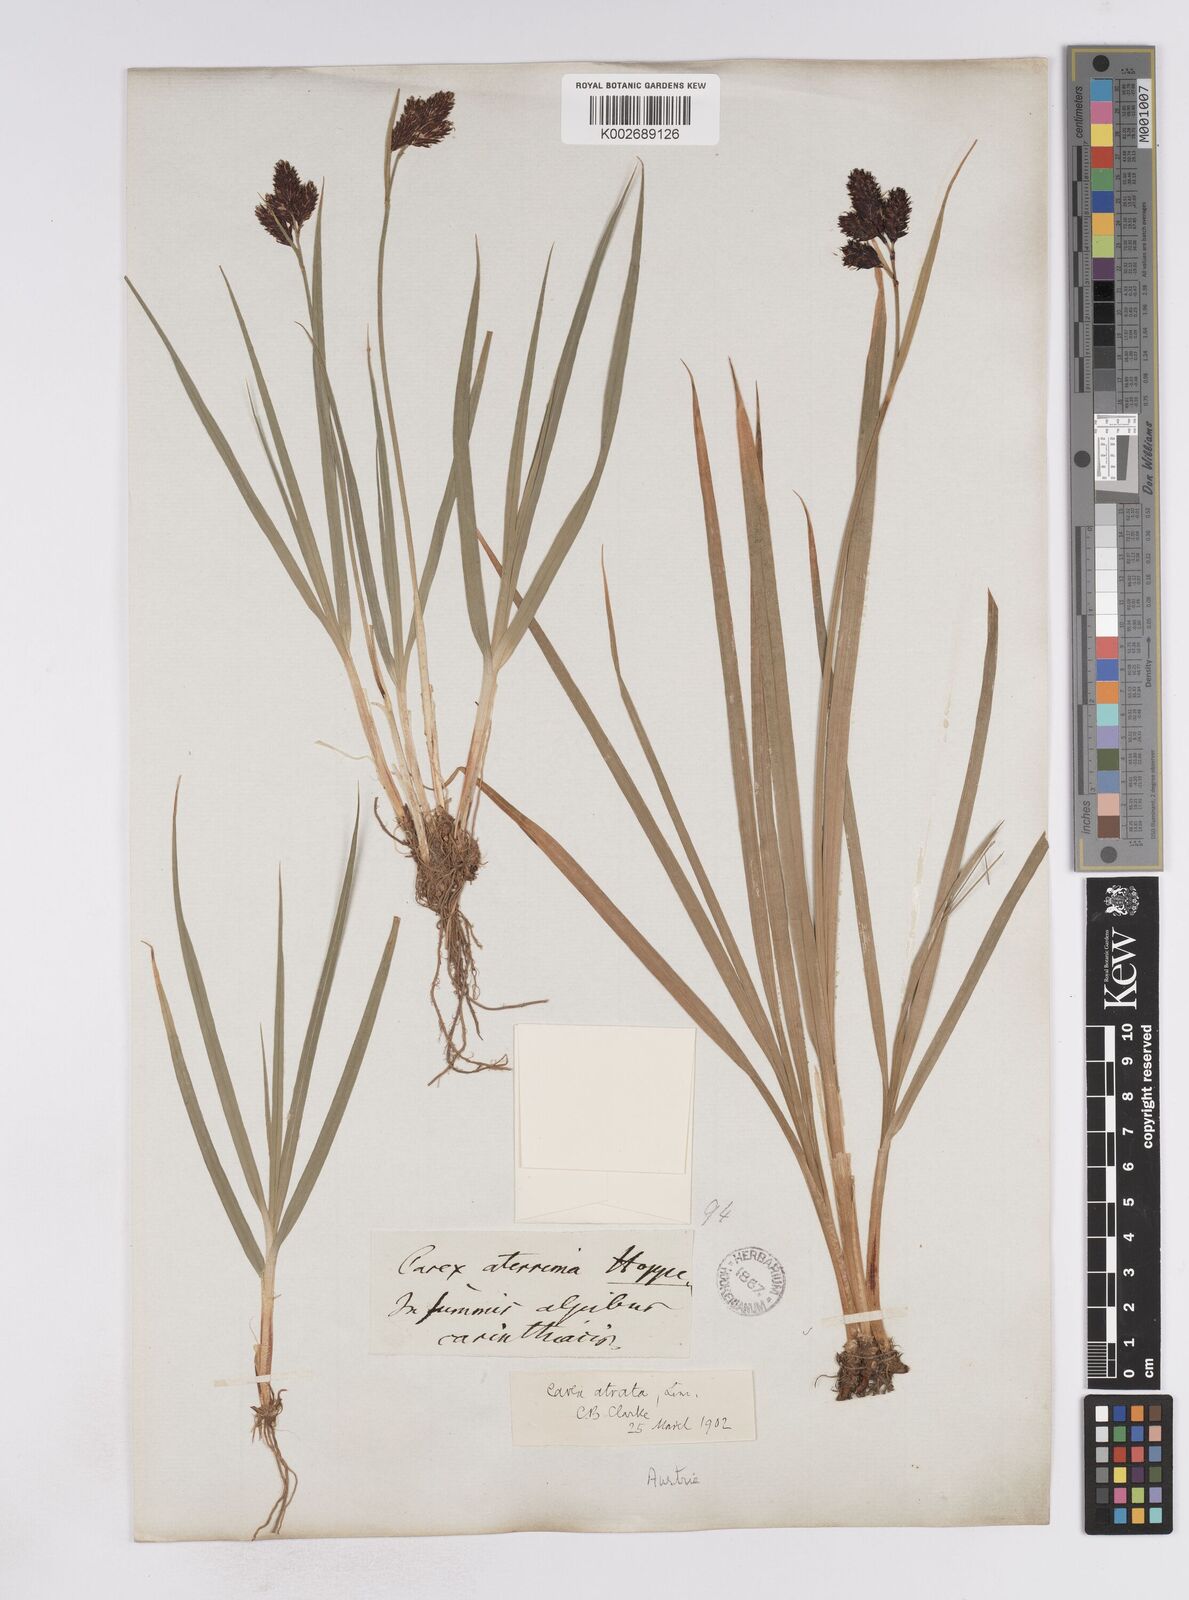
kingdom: Plantae
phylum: Tracheophyta
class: Liliopsida
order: Poales
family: Cyperaceae
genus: Carex
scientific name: Carex aterrima
